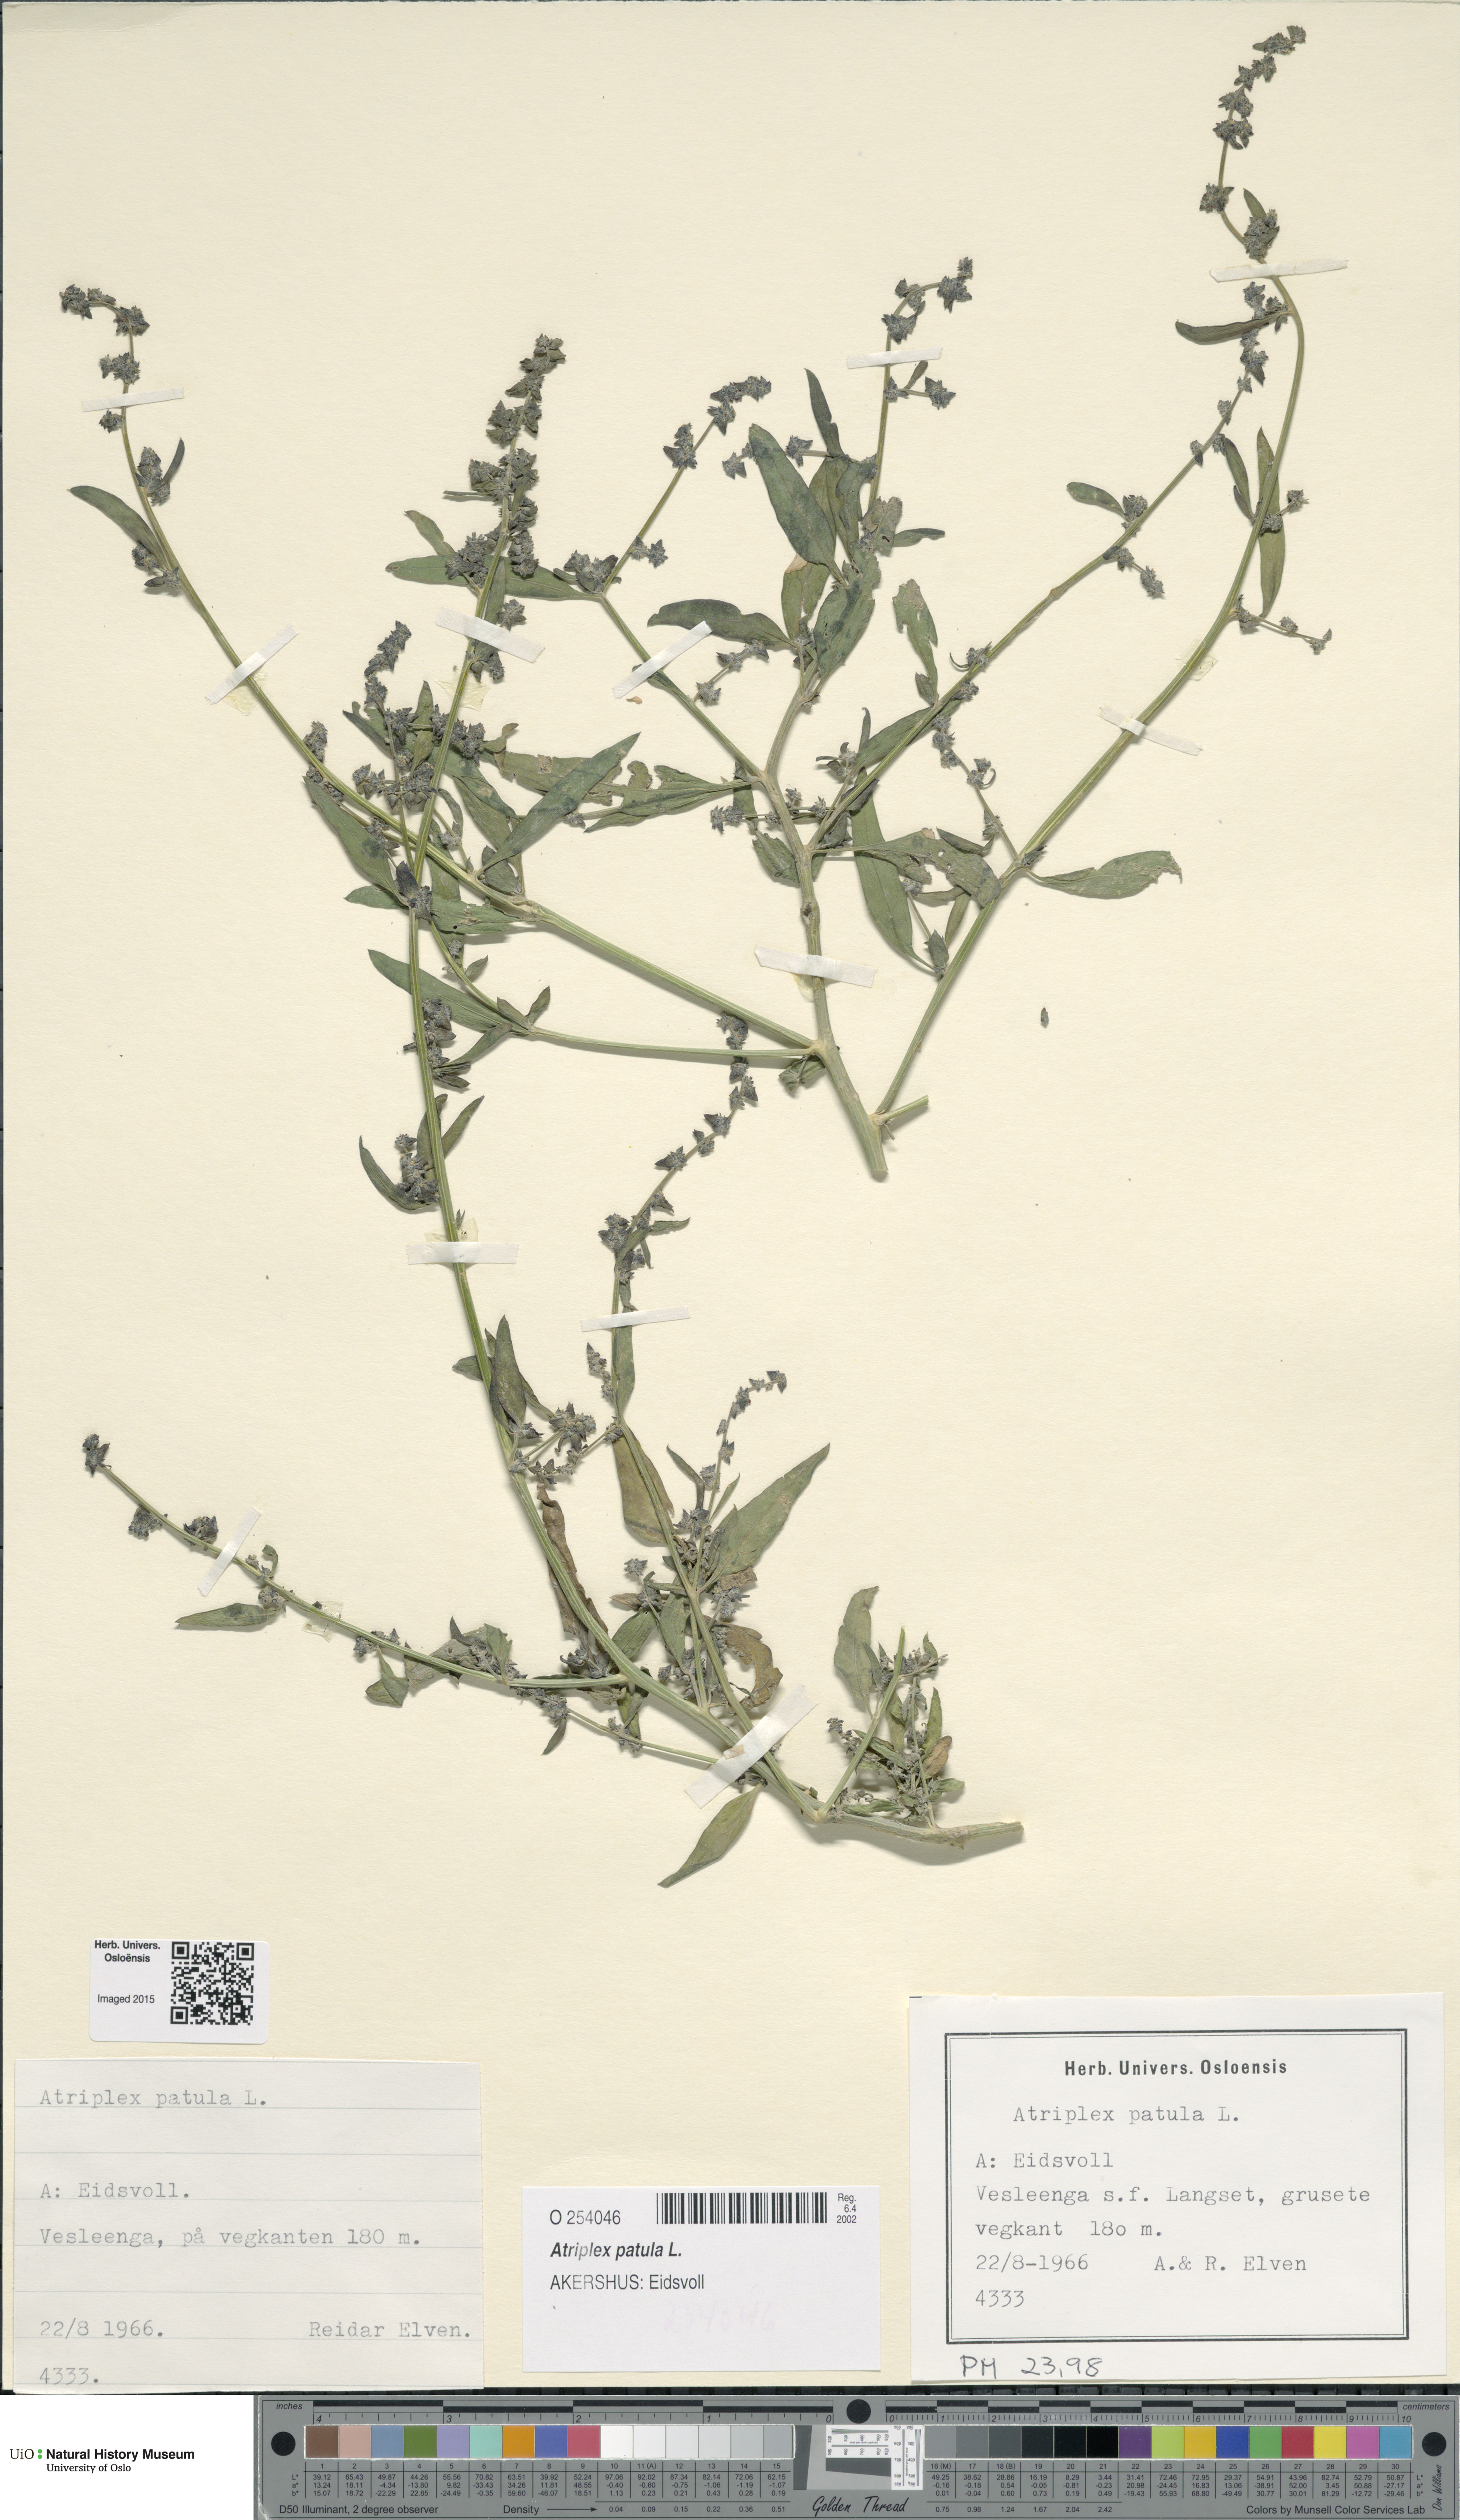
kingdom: Plantae
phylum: Tracheophyta
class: Magnoliopsida
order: Caryophyllales
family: Amaranthaceae
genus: Atriplex
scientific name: Atriplex patula
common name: Common orache
